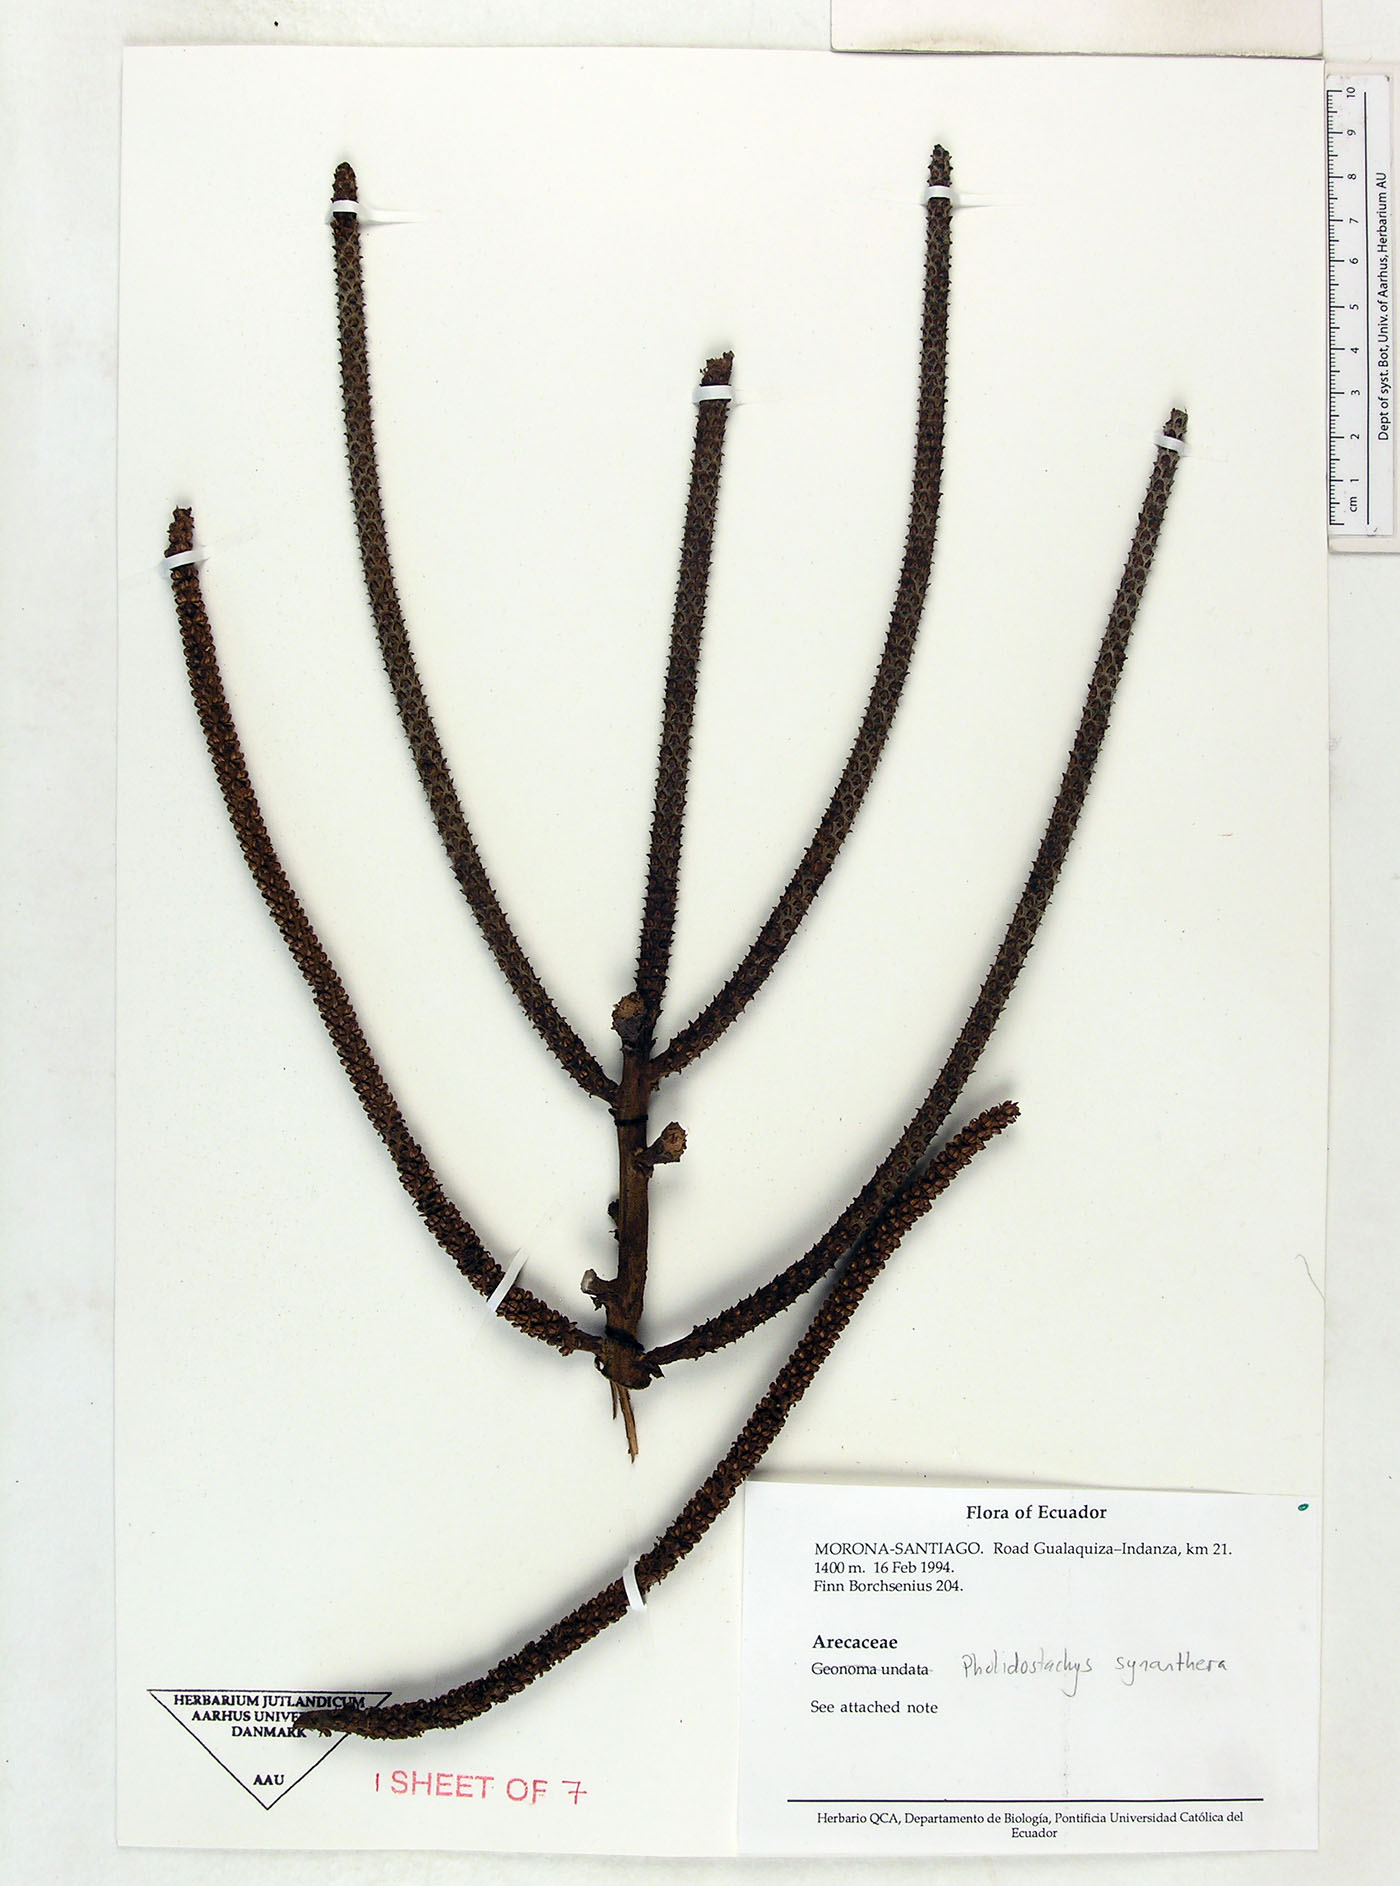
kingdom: Plantae
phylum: Tracheophyta
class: Liliopsida
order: Arecales
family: Arecaceae
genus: Pholidostachys
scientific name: Pholidostachys synanthera
